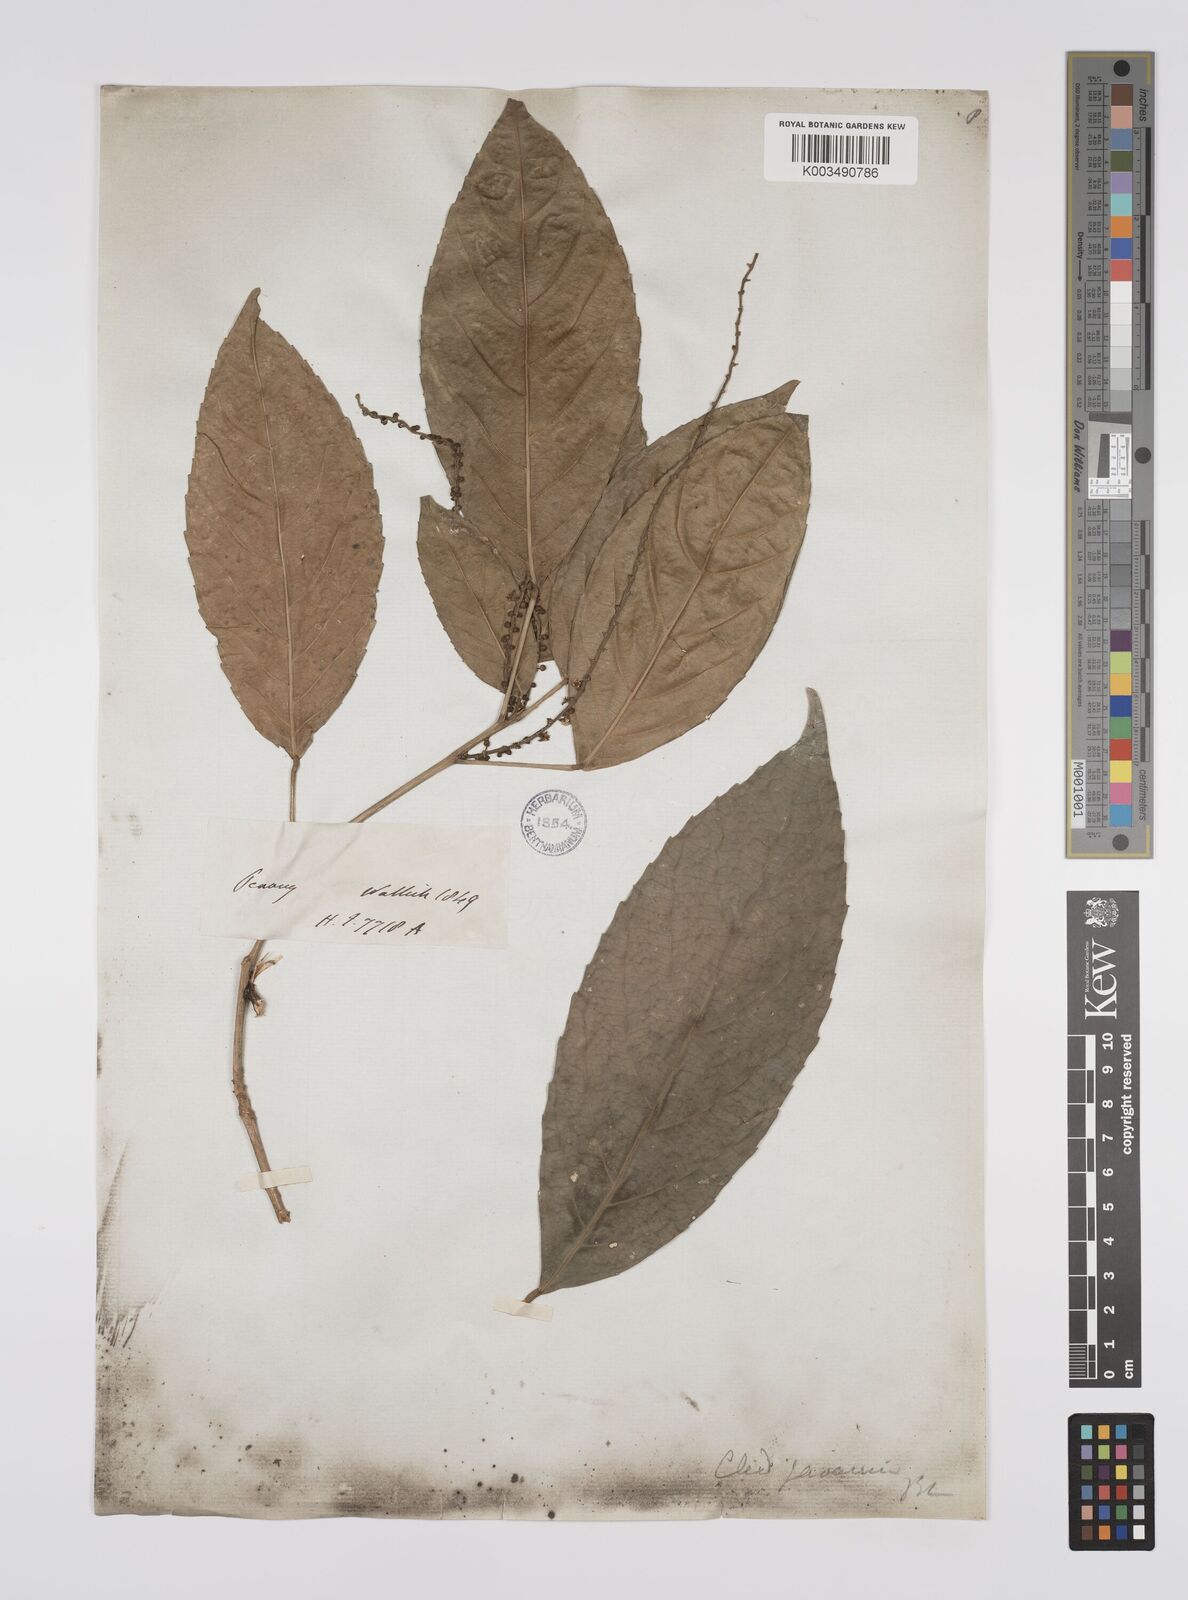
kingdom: Plantae
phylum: Tracheophyta
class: Magnoliopsida
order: Malpighiales
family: Euphorbiaceae
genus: Cleidion
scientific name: Cleidion javanicum
